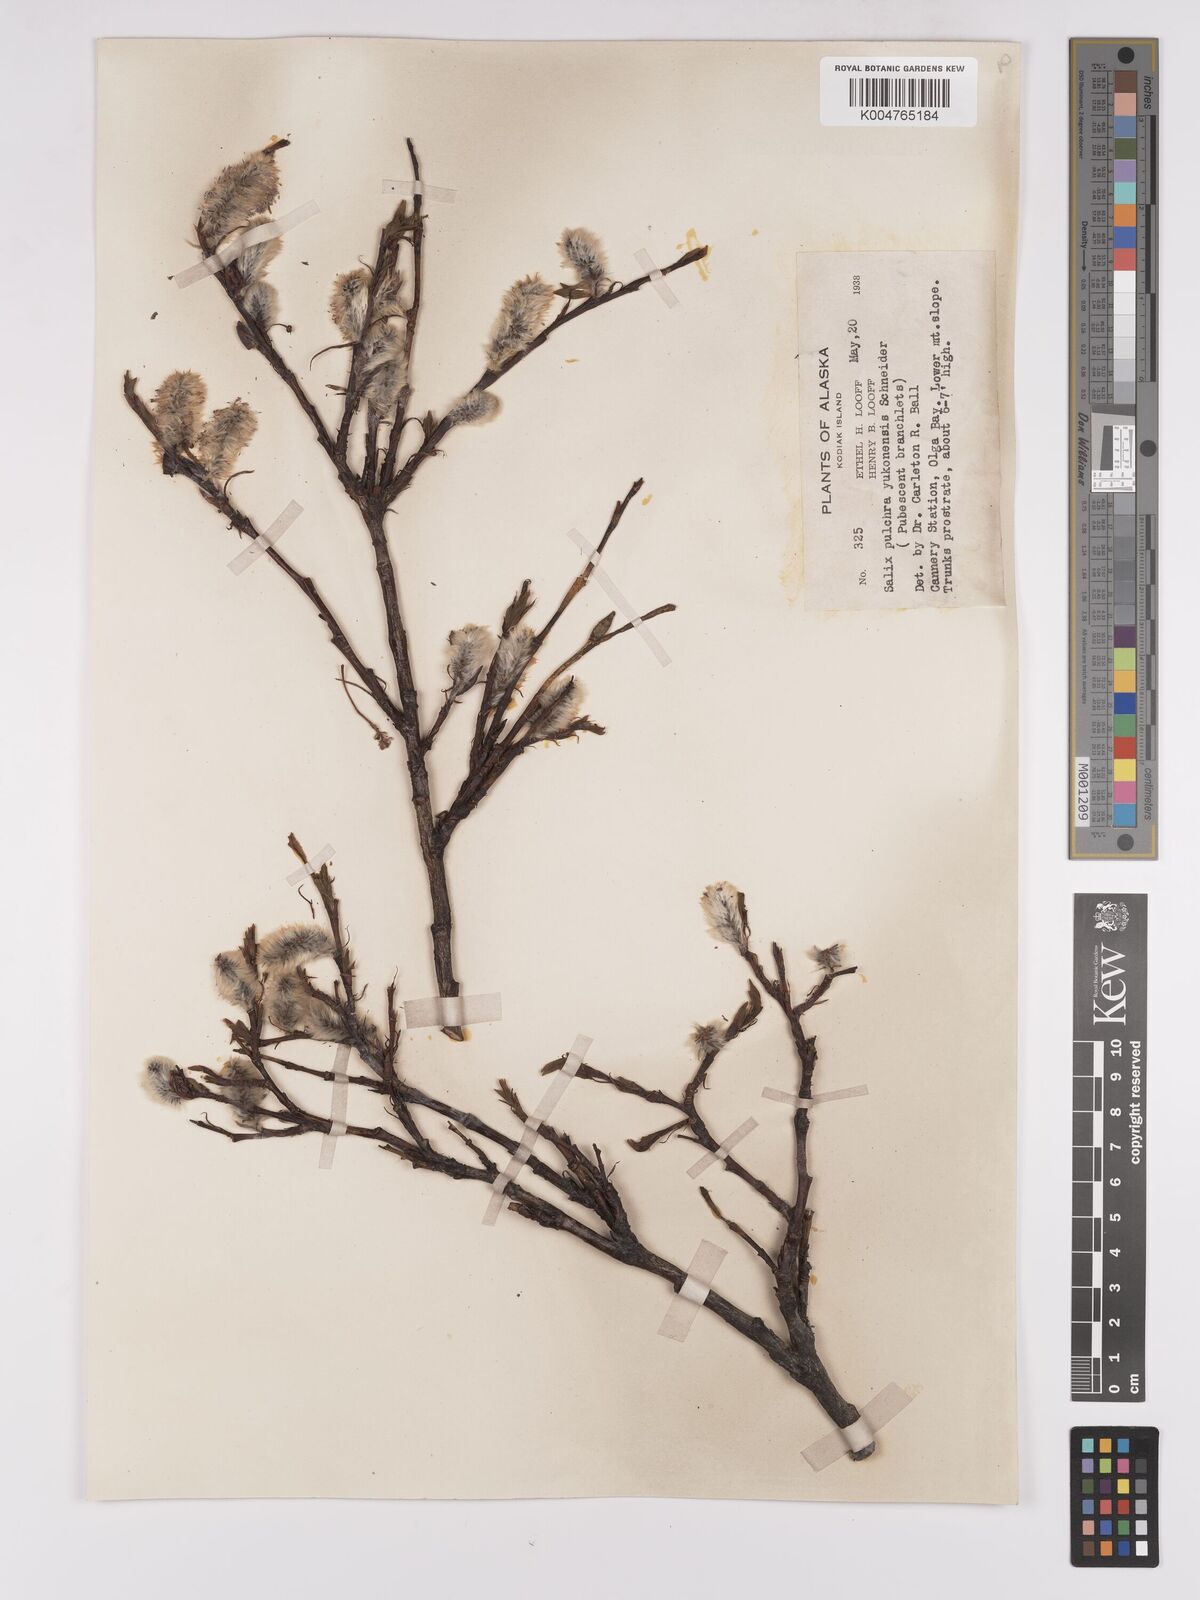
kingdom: Plantae
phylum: Tracheophyta
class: Magnoliopsida
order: Malpighiales
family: Salicaceae
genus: Salix
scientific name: Salix pulchra
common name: Diamond-leaved willow
